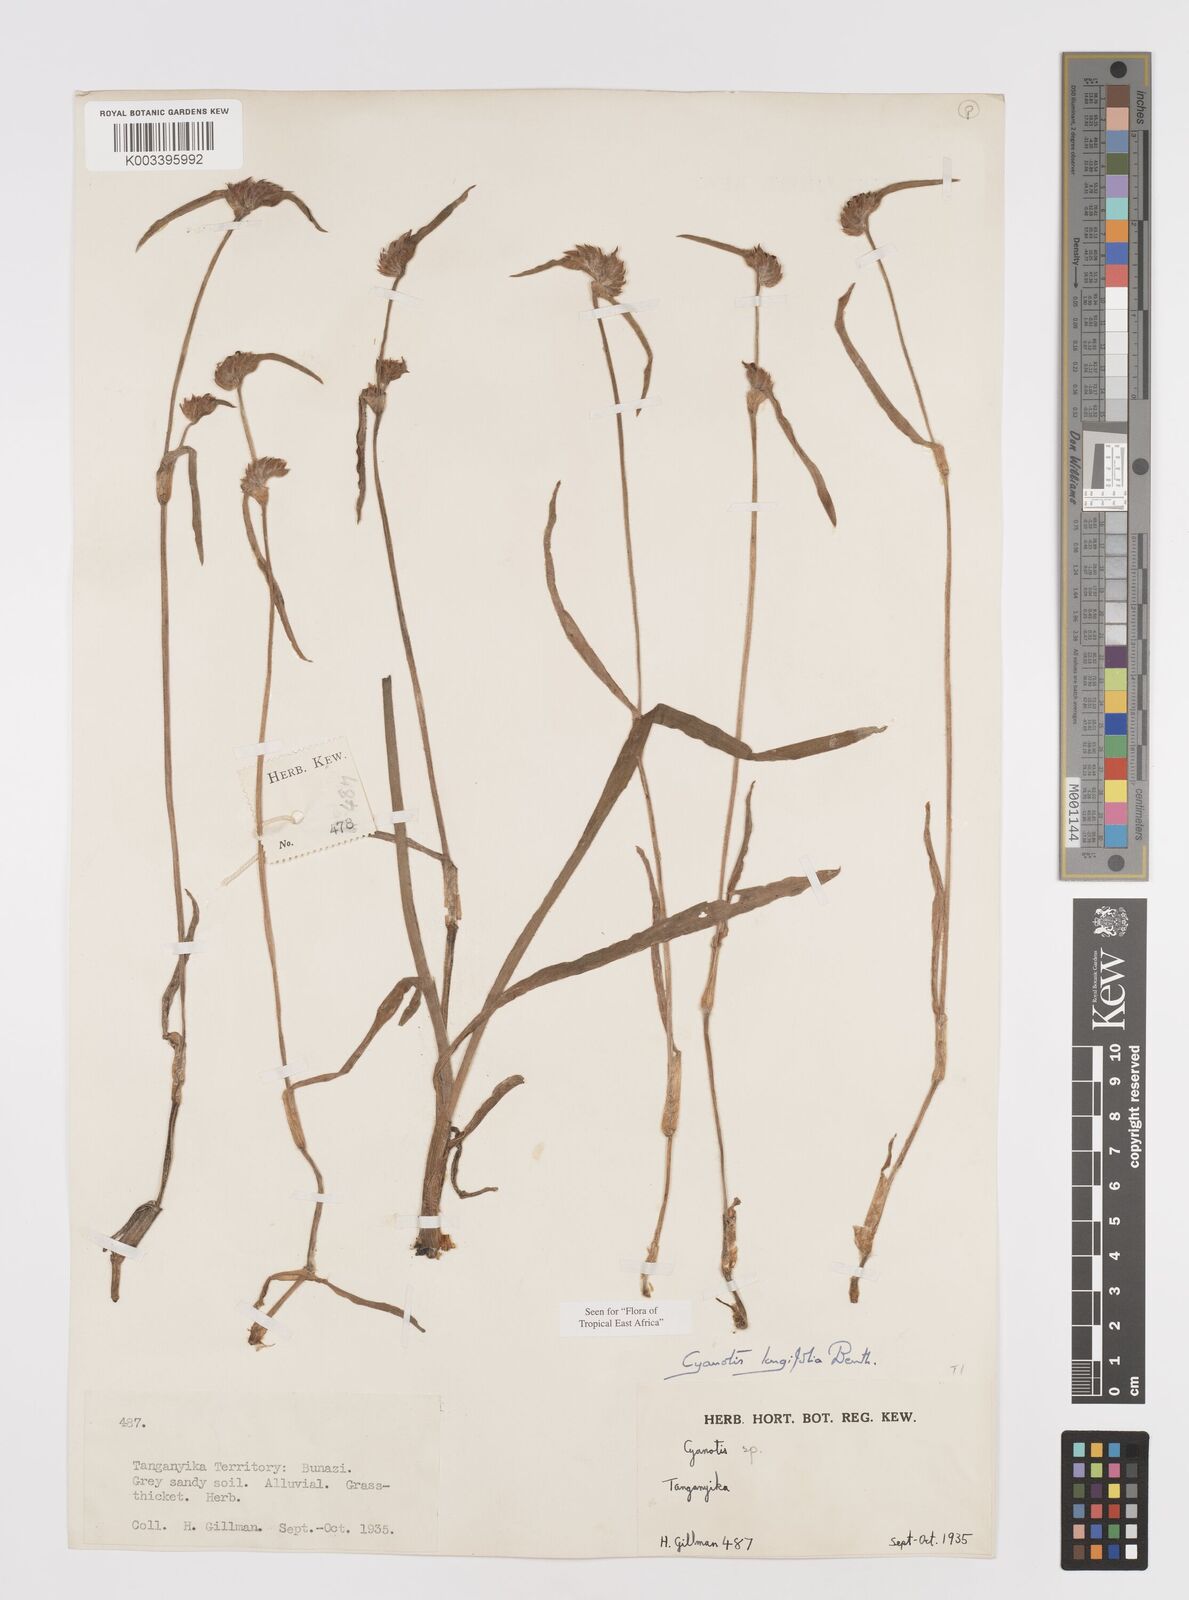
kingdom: Plantae
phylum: Tracheophyta
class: Liliopsida
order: Commelinales
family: Commelinaceae
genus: Cyanotis
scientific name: Cyanotis longifolia
